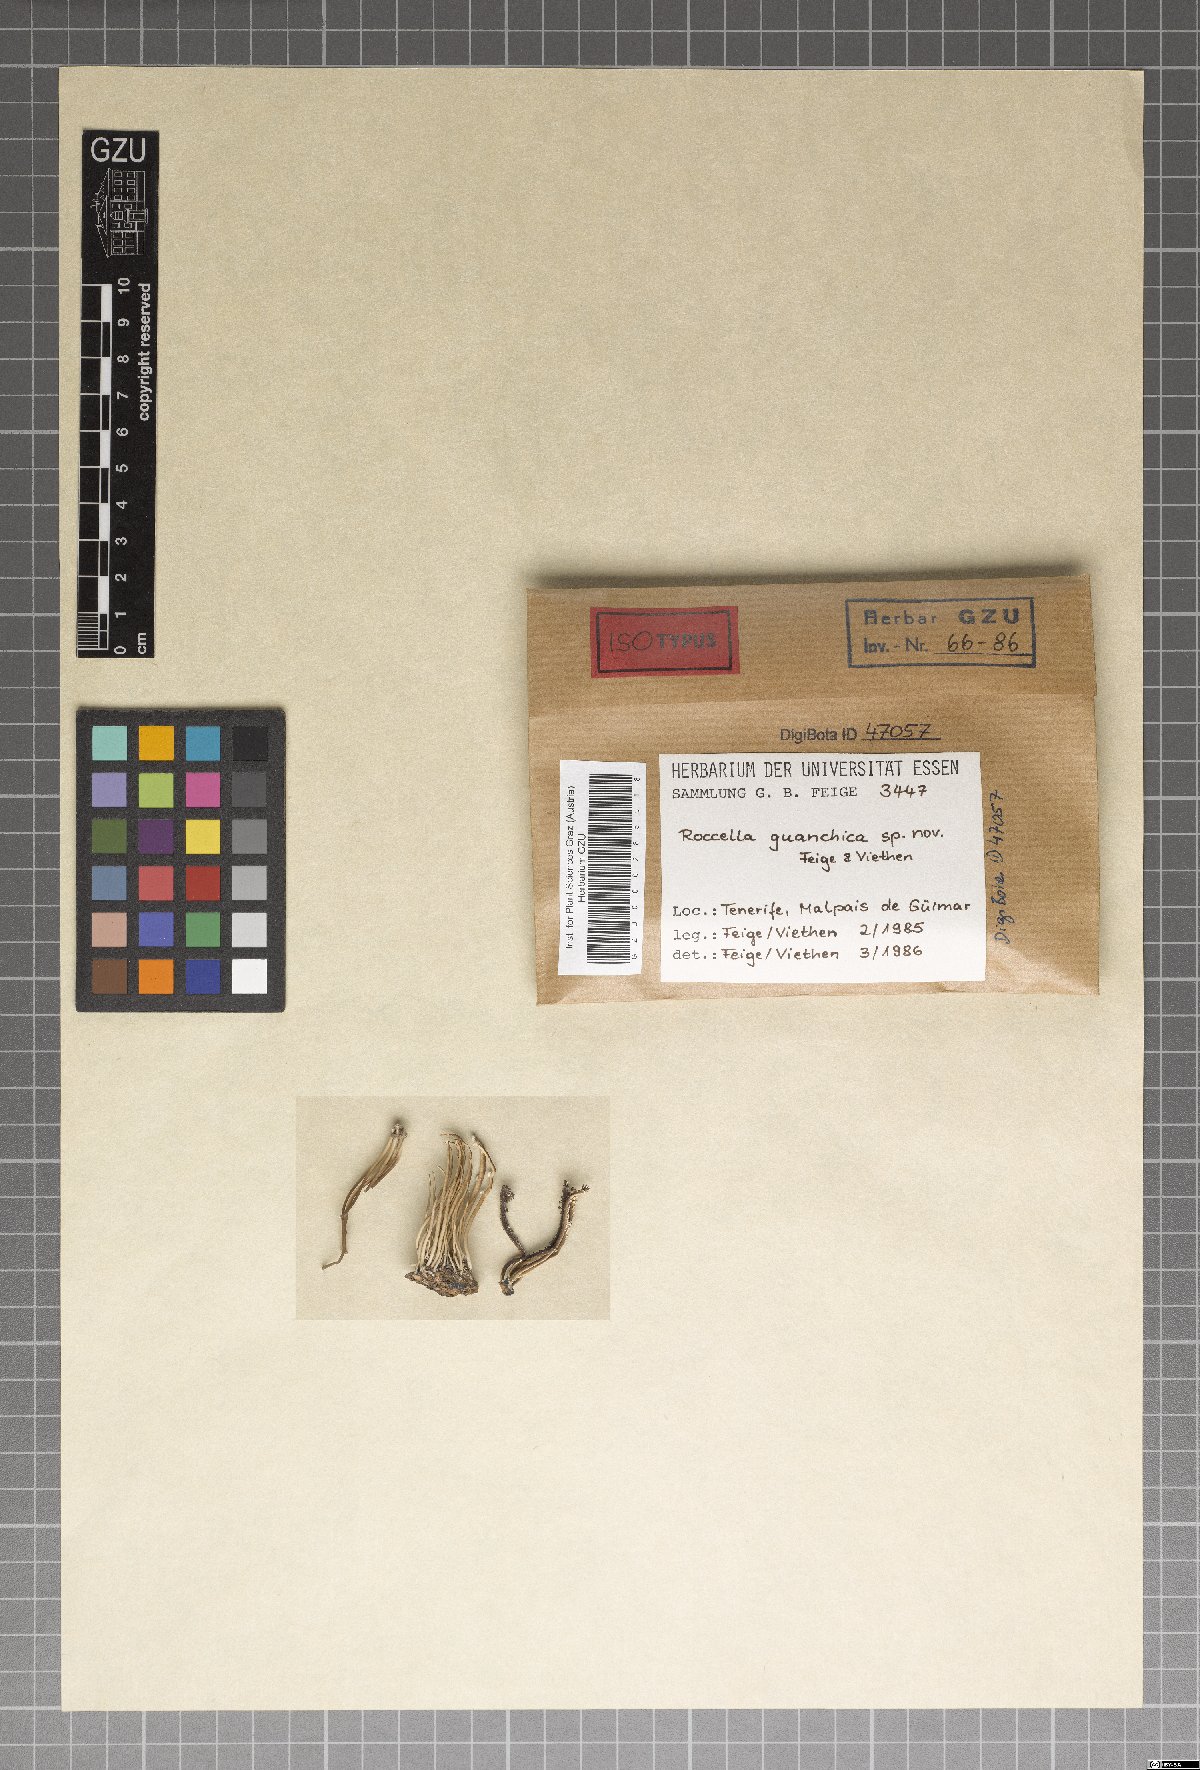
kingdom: Fungi
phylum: Ascomycota
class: Arthoniomycetes
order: Arthoniales
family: Roccellaceae
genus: Roccella
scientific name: Roccella phycopsis
